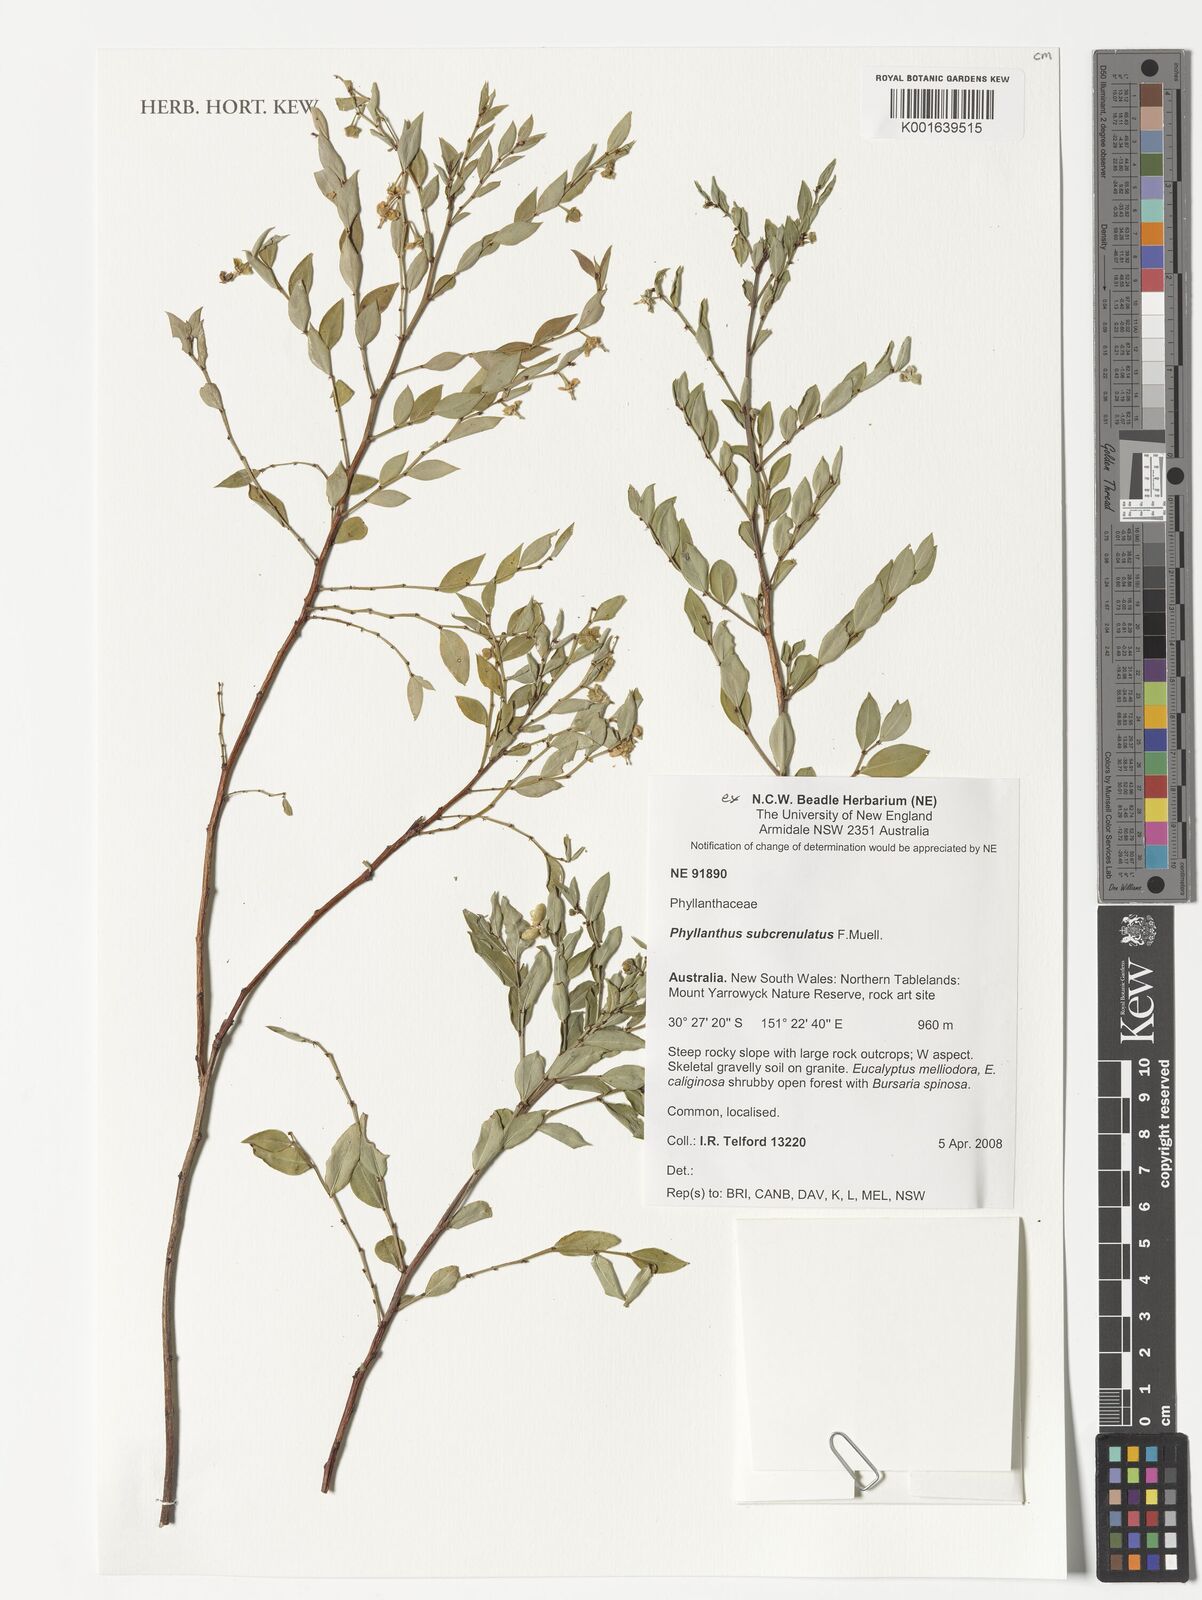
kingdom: Plantae
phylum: Tracheophyta
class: Magnoliopsida
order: Malpighiales
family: Phyllanthaceae
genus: Phyllanthus
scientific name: Phyllanthus subcrenulatus
